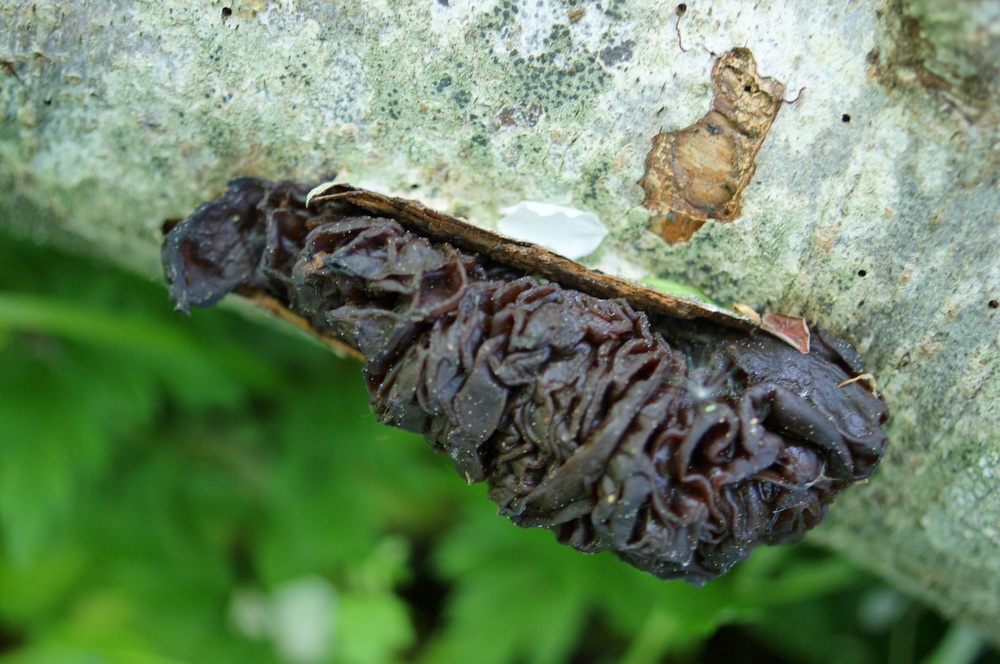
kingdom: Fungi
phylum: Basidiomycota
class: Tremellomycetes
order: Tremellales
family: Tremellaceae
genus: Phaeotremella
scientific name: Phaeotremella frondosa
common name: kæmpe-bævresvamp
